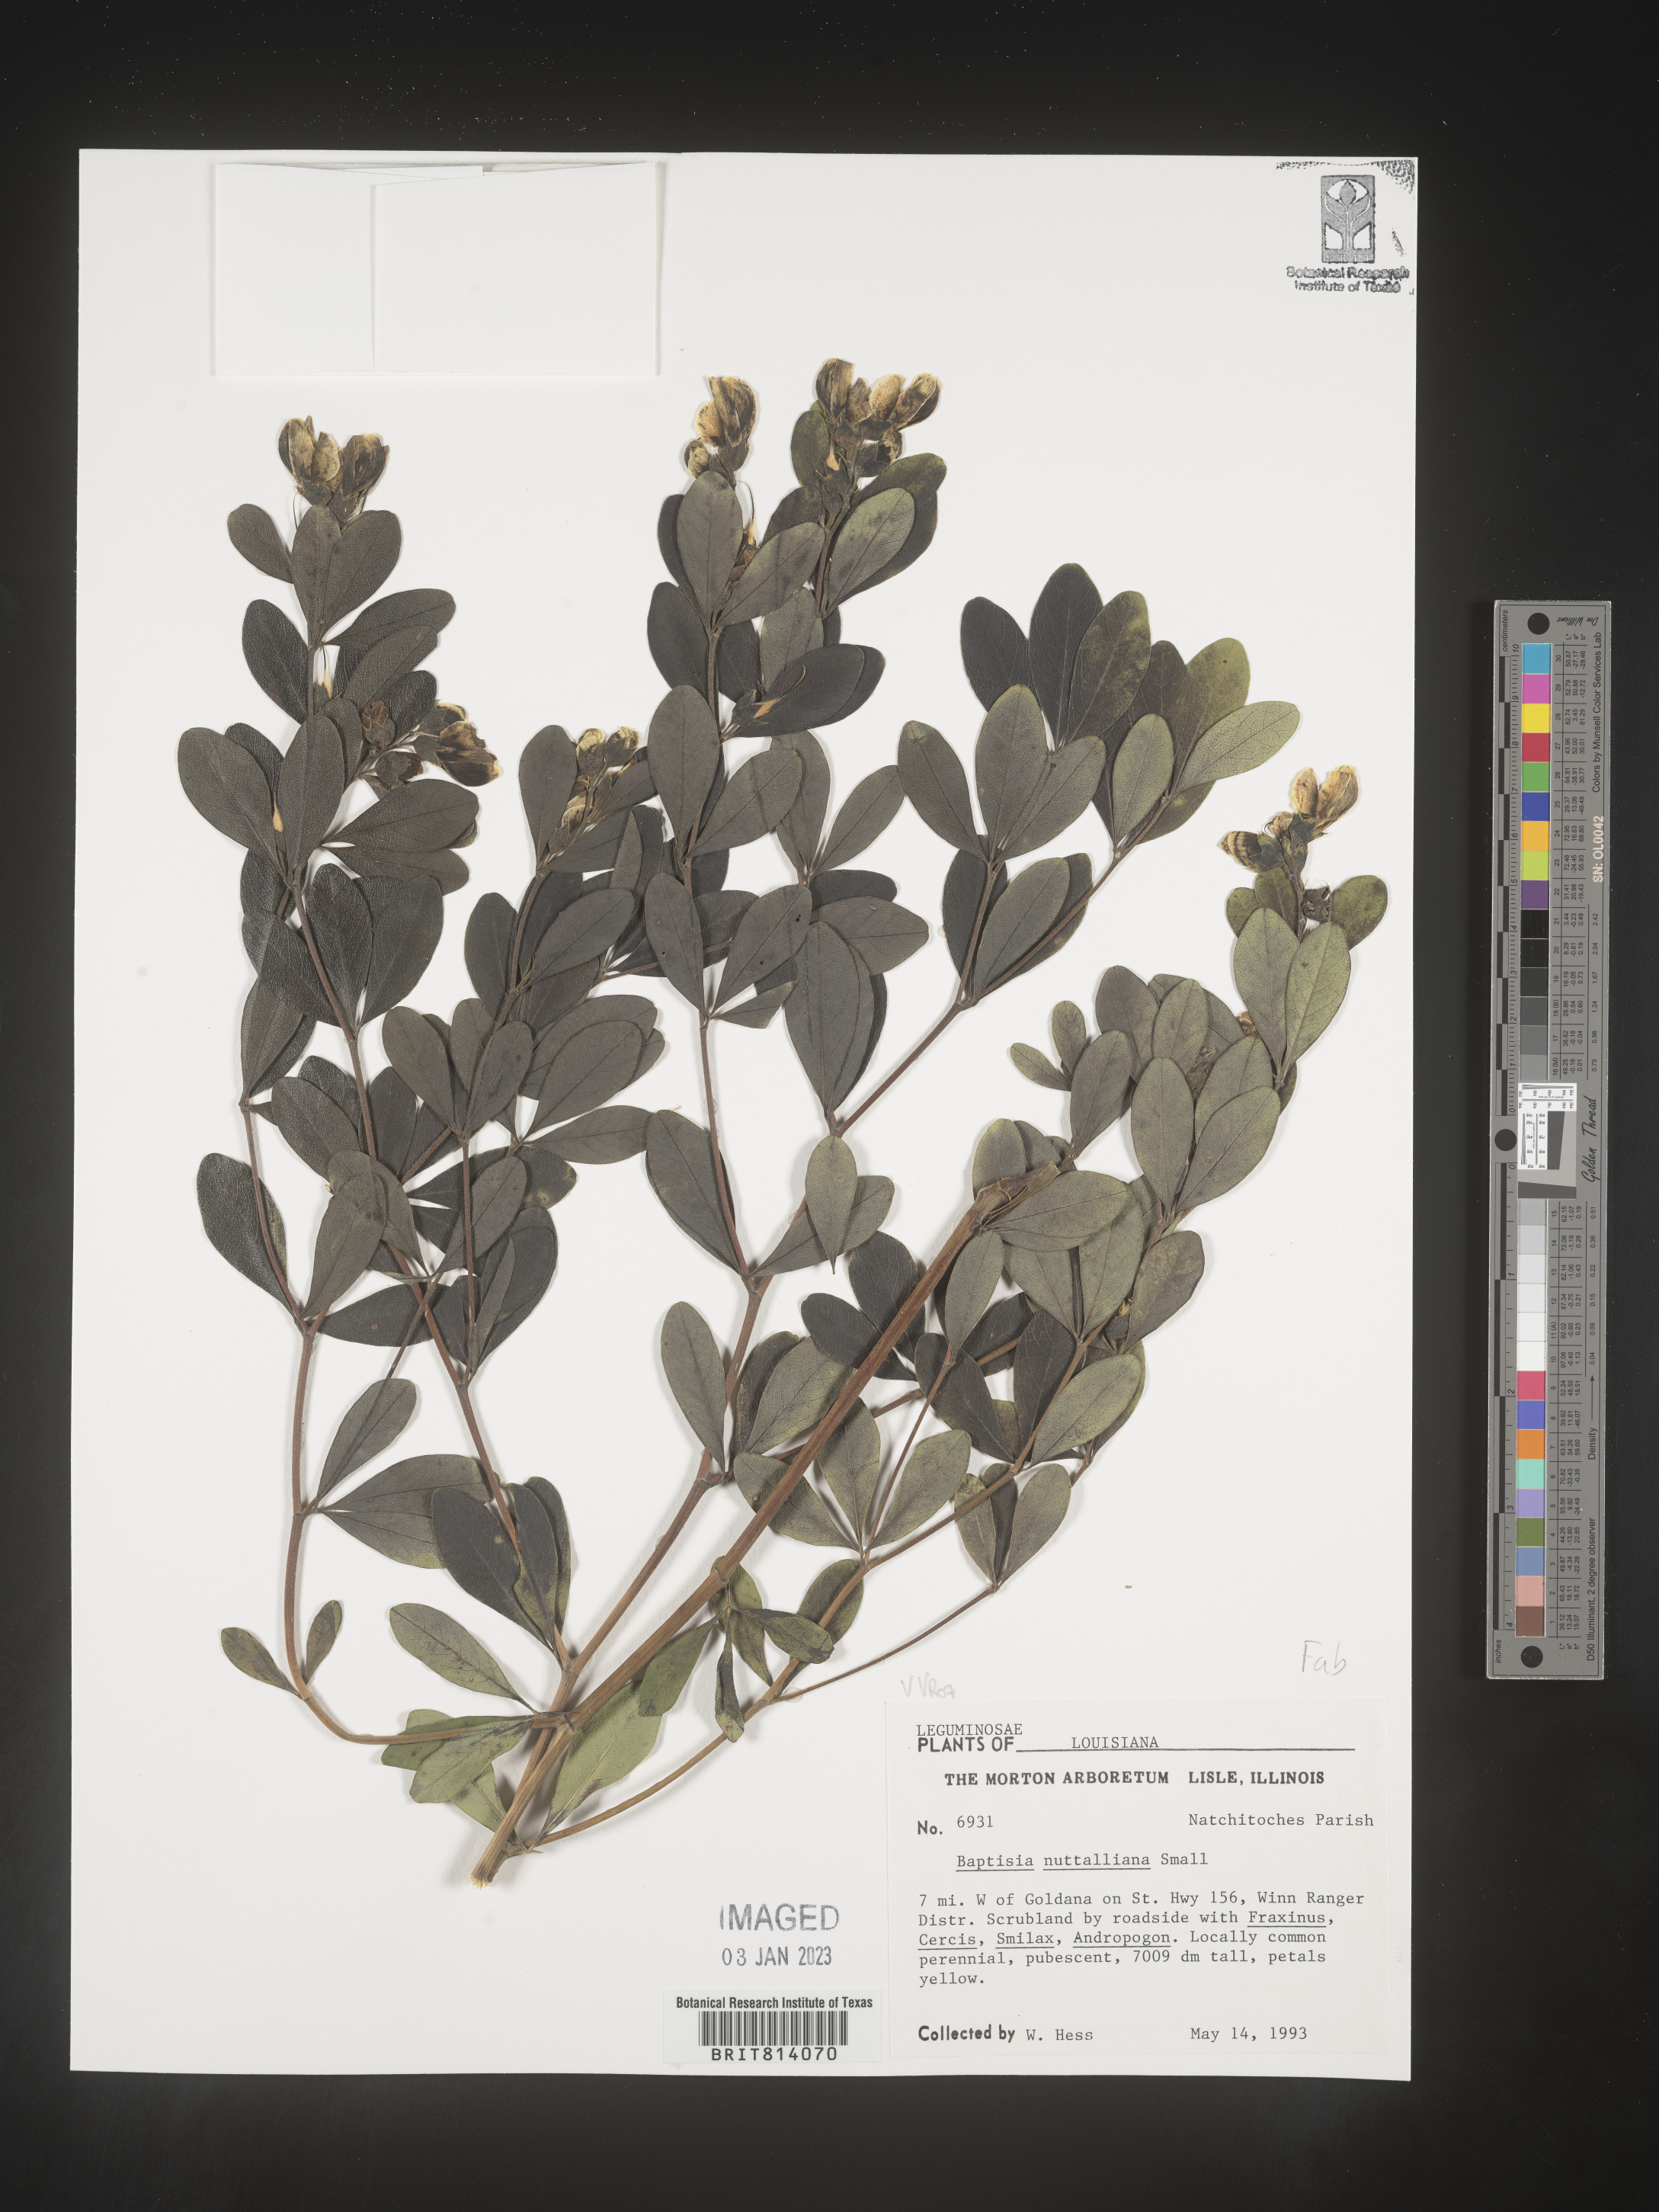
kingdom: Plantae
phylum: Tracheophyta
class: Magnoliopsida
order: Fabales
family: Fabaceae
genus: Baptisia
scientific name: Baptisia nuttalliana
